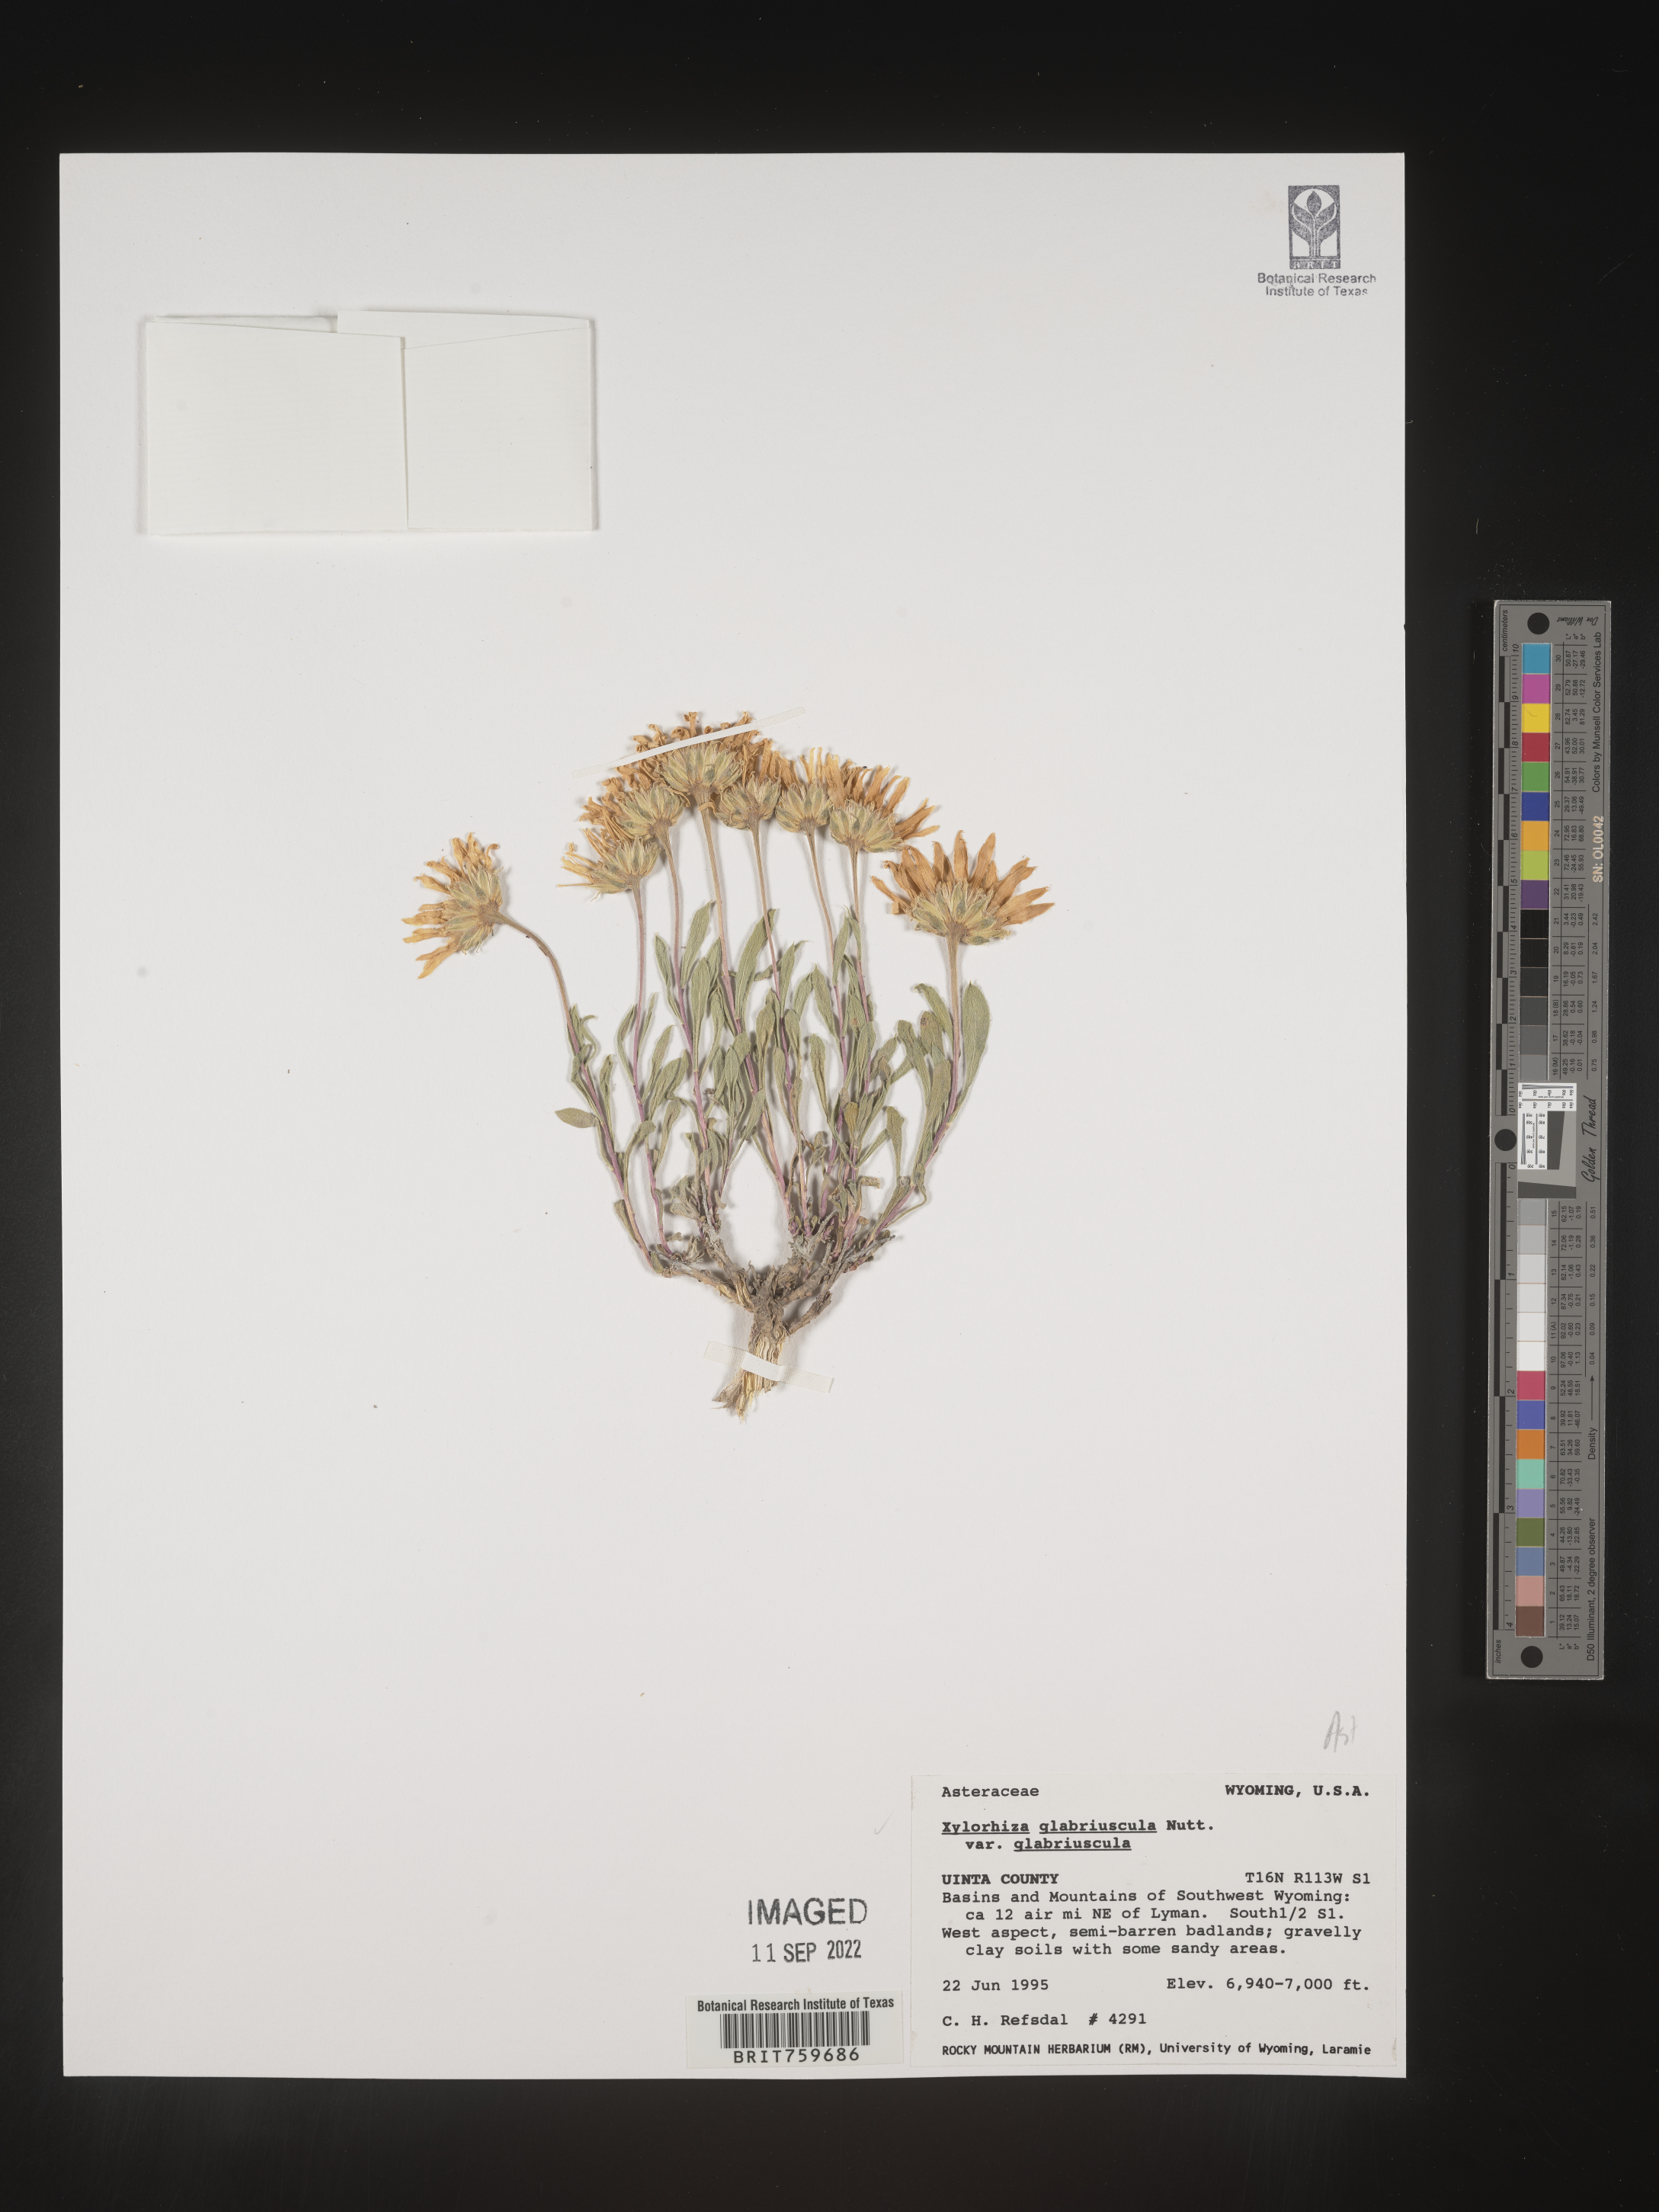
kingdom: Plantae
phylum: Tracheophyta
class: Magnoliopsida
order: Asterales
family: Asteraceae
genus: Xylorhiza
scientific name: Xylorhiza glabriuscula
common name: Smooth woody-aster
